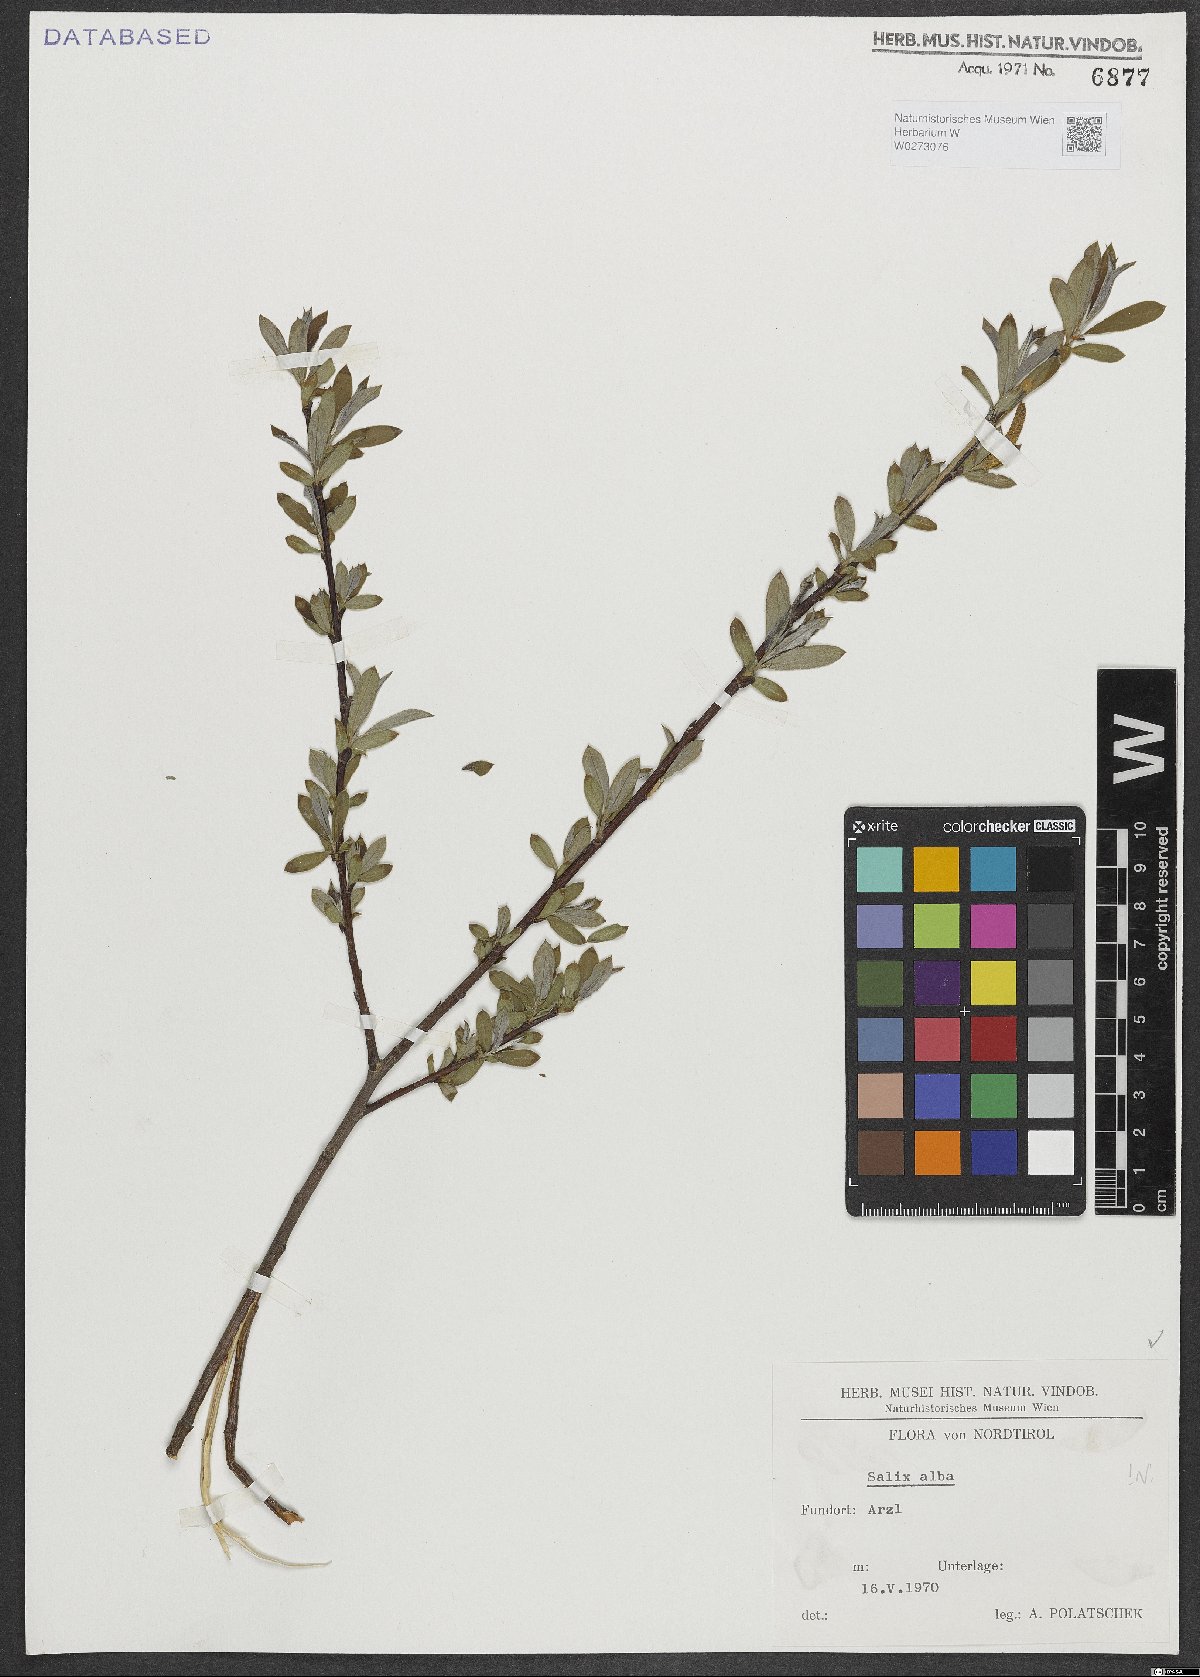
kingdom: Plantae
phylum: Tracheophyta
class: Magnoliopsida
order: Malpighiales
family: Salicaceae
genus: Salix
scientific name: Salix alba
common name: White willow
